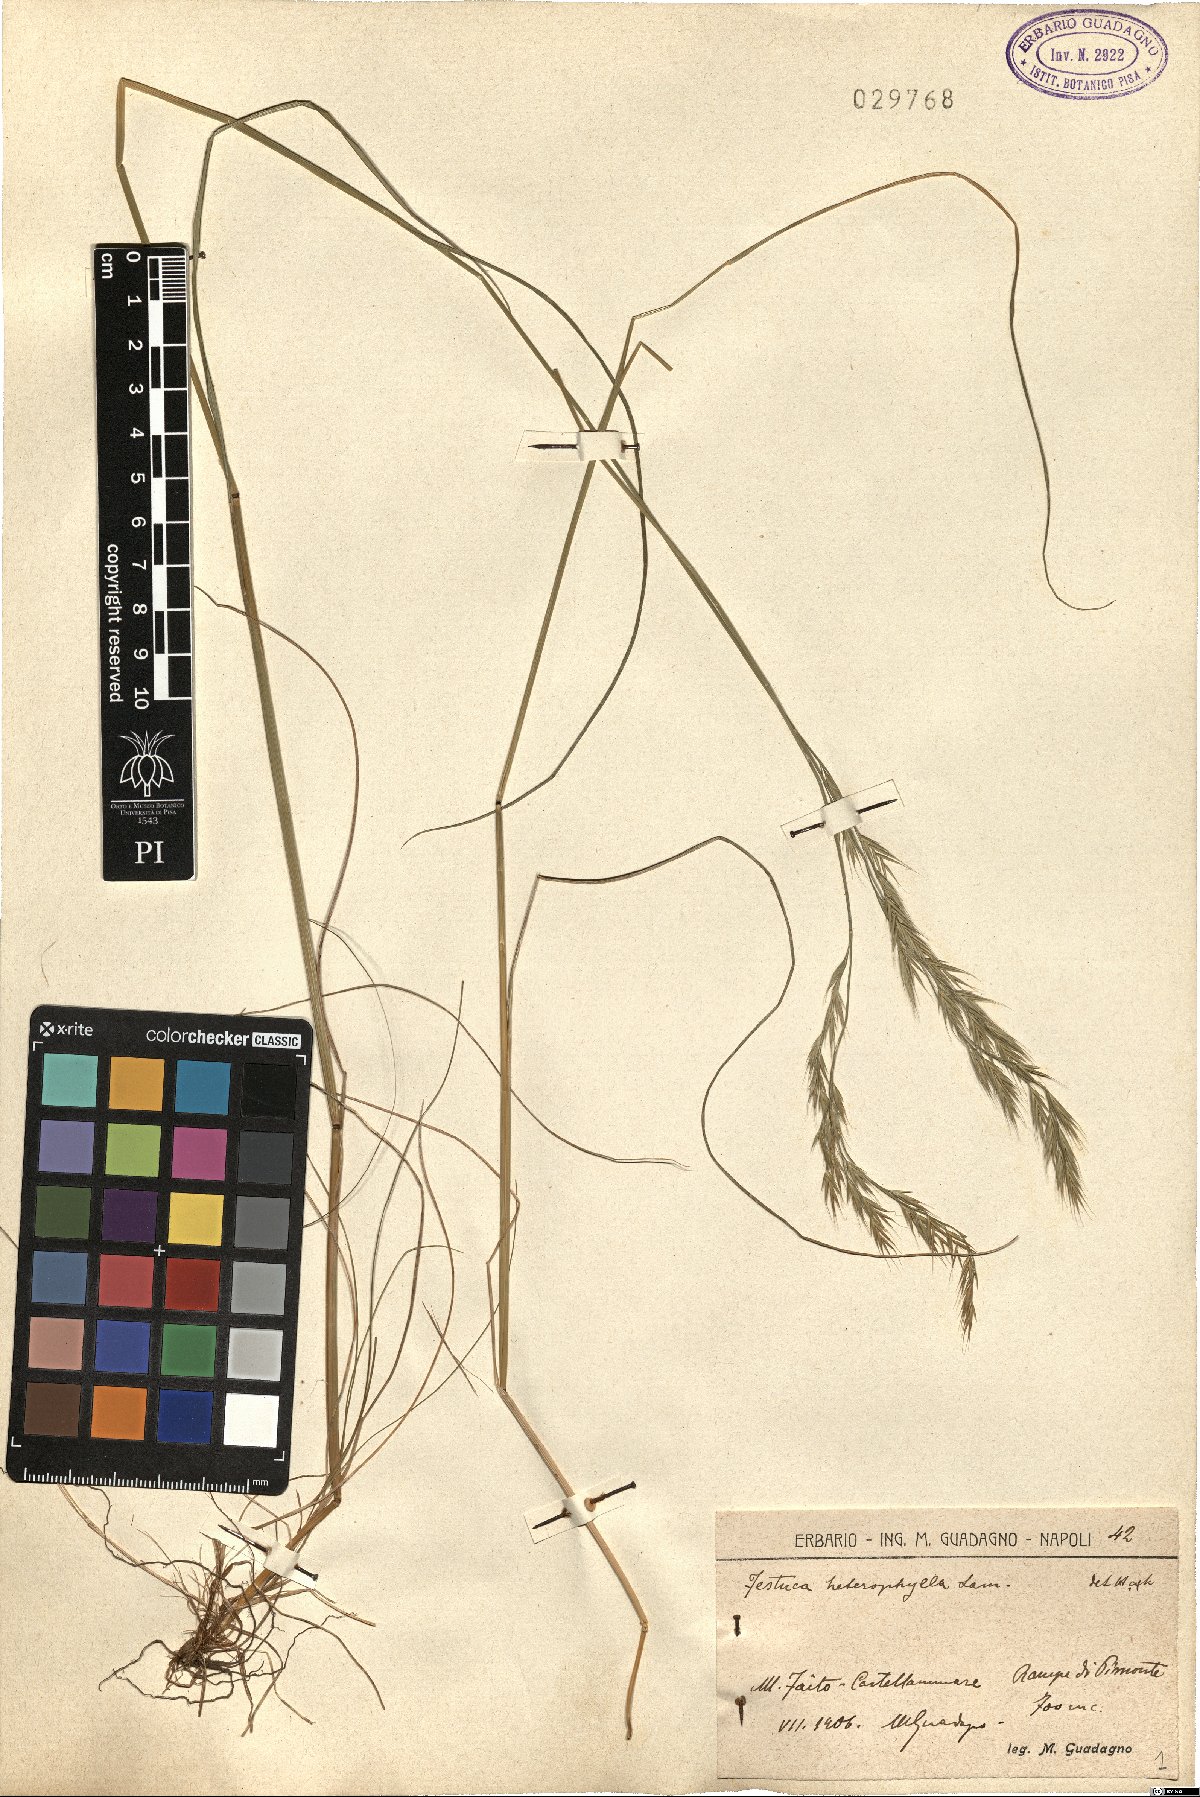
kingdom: Plantae
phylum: Tracheophyta
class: Liliopsida
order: Poales
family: Poaceae
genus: Festuca
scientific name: Festuca heterophylla
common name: Various-leaved fescue
